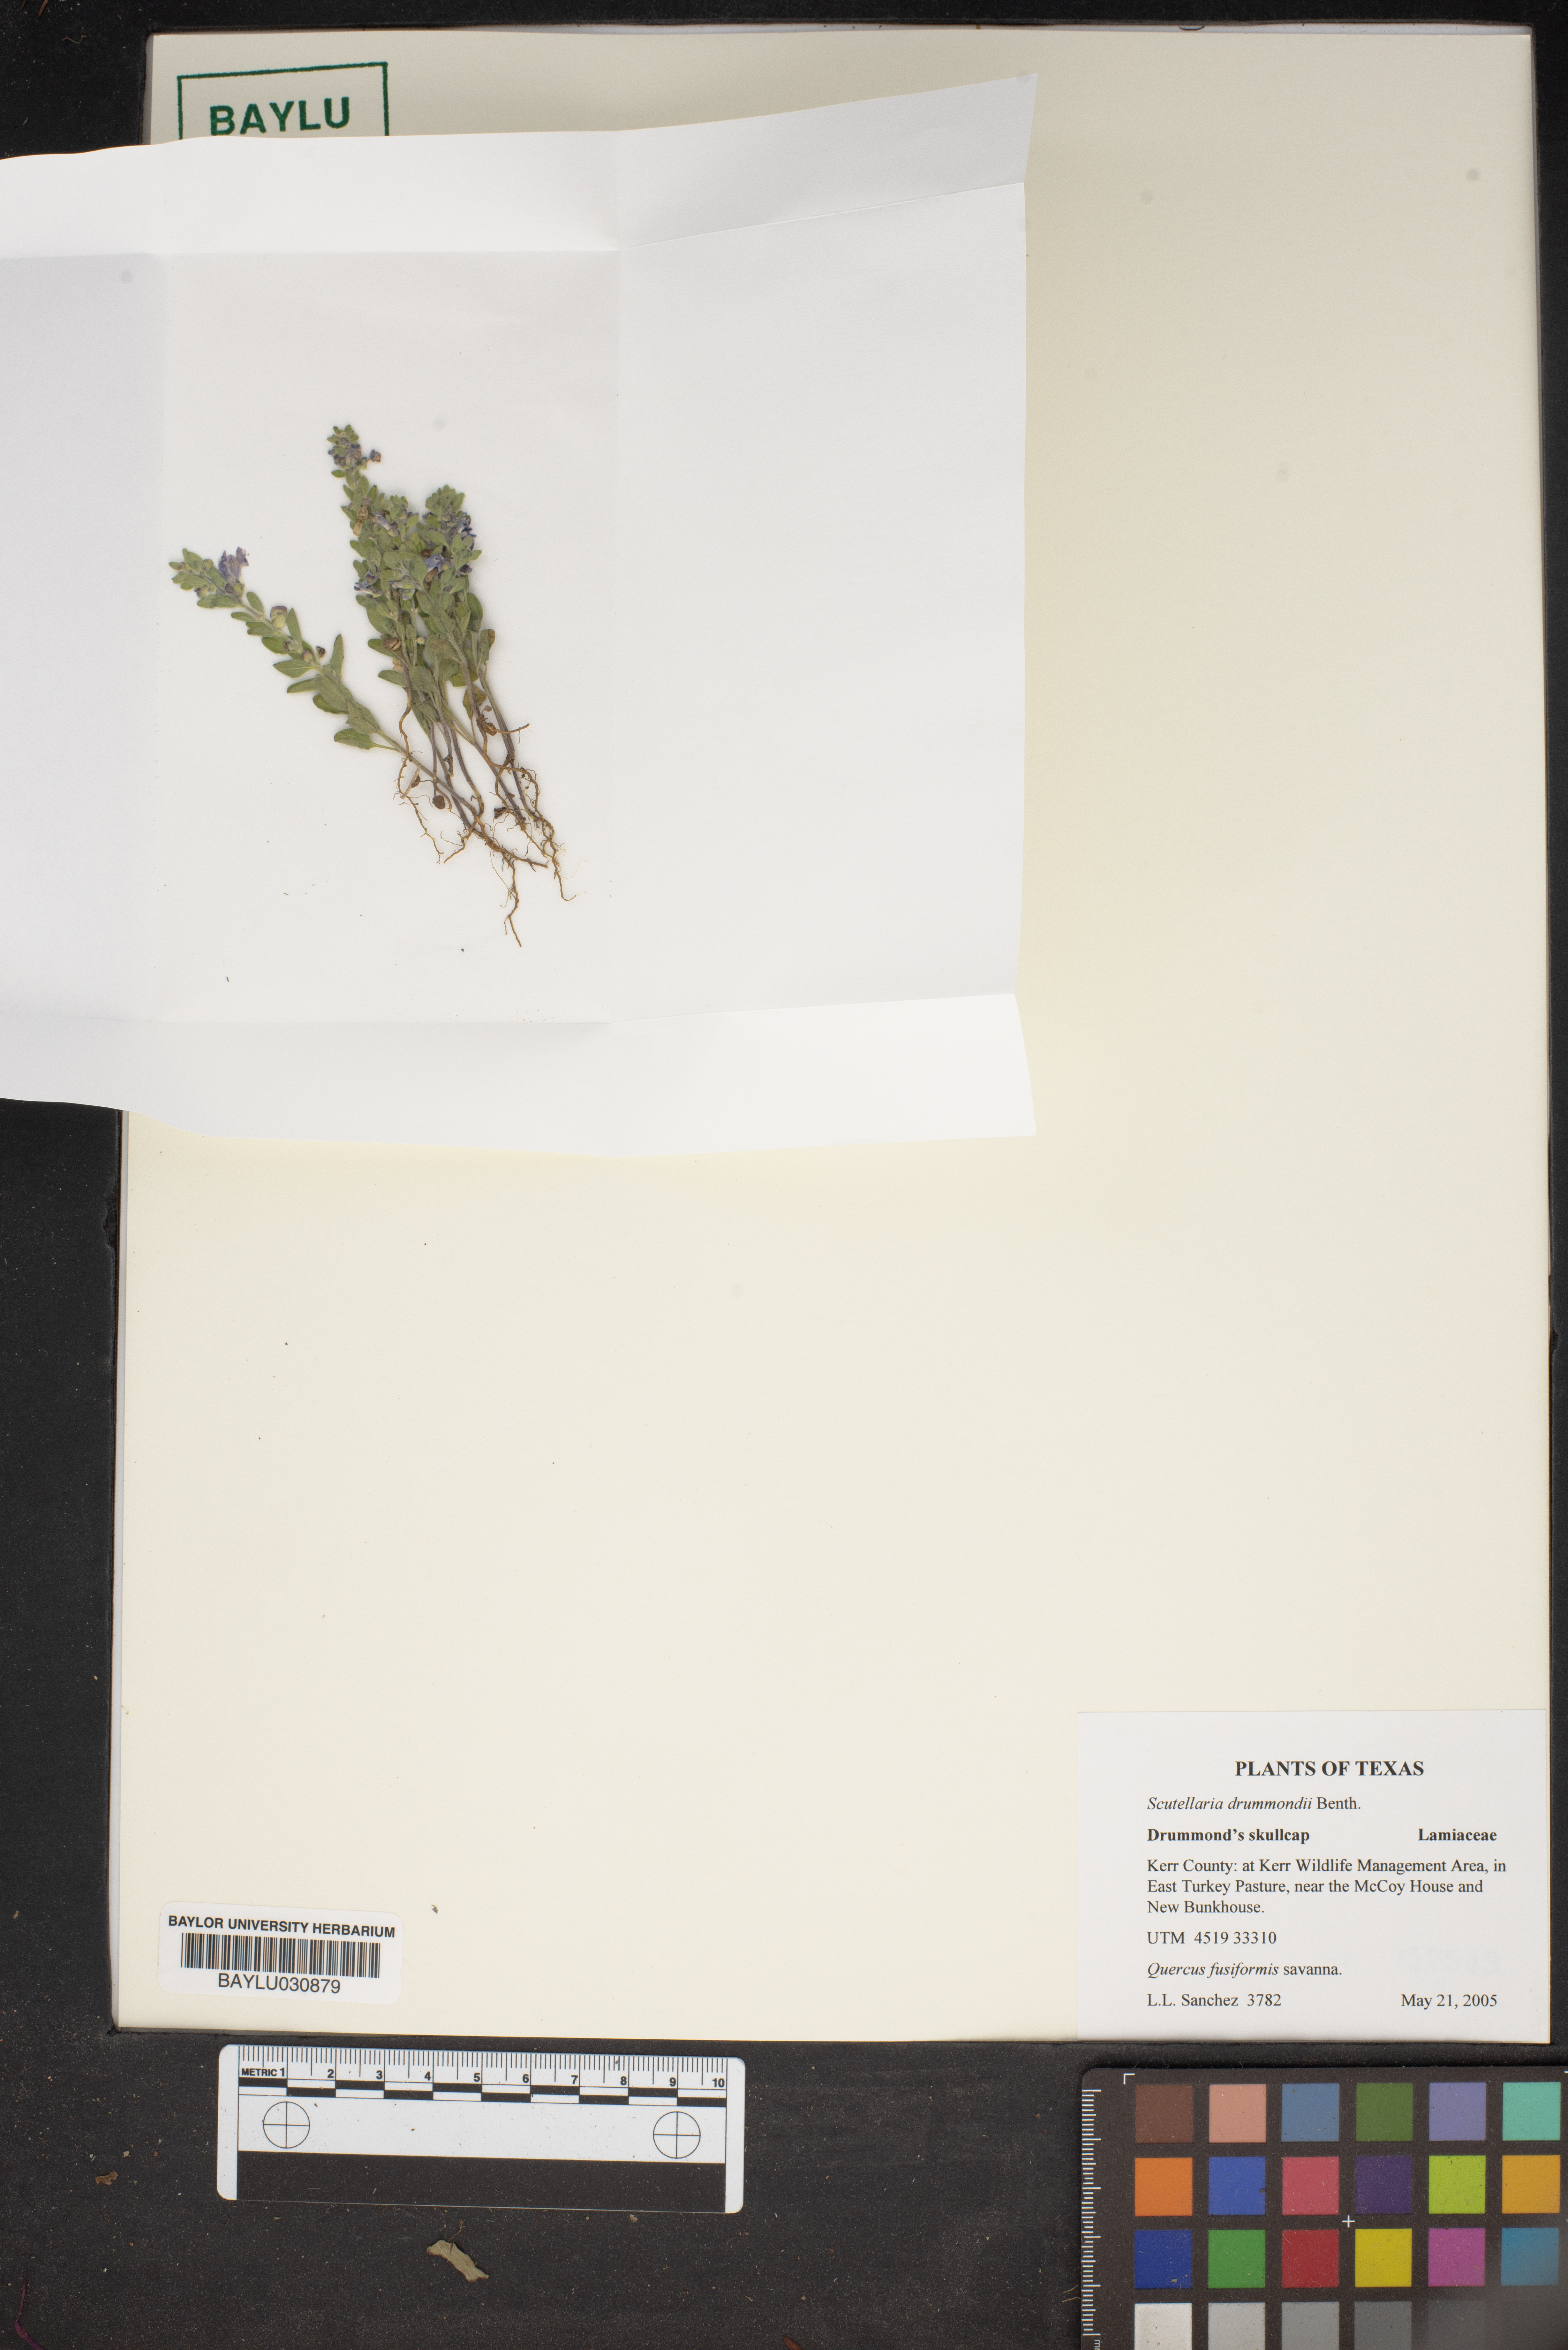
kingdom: Plantae
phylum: Tracheophyta
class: Magnoliopsida
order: Lamiales
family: Lamiaceae
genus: Scutellaria
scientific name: Scutellaria drummondii
